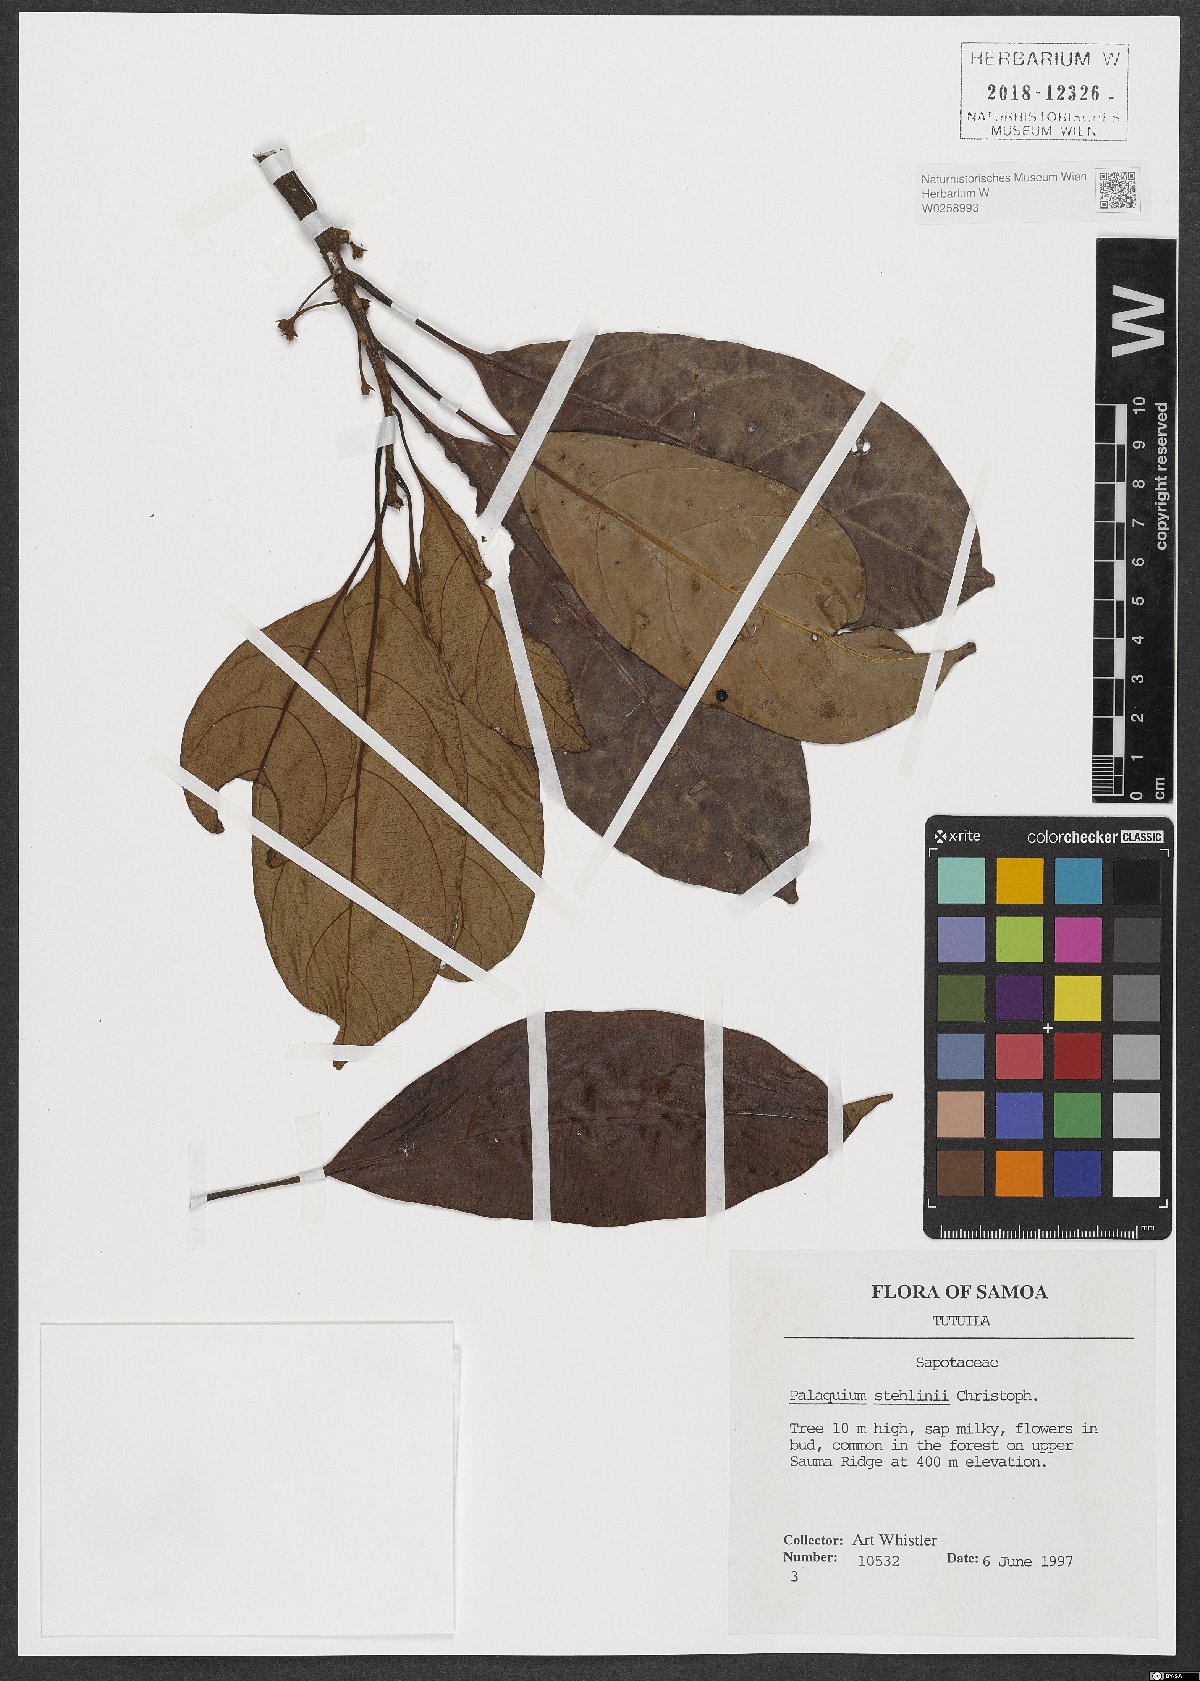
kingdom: Plantae
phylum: Tracheophyta
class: Magnoliopsida
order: Ericales
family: Sapotaceae
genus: Palaquium
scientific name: Palaquium stehlinii
